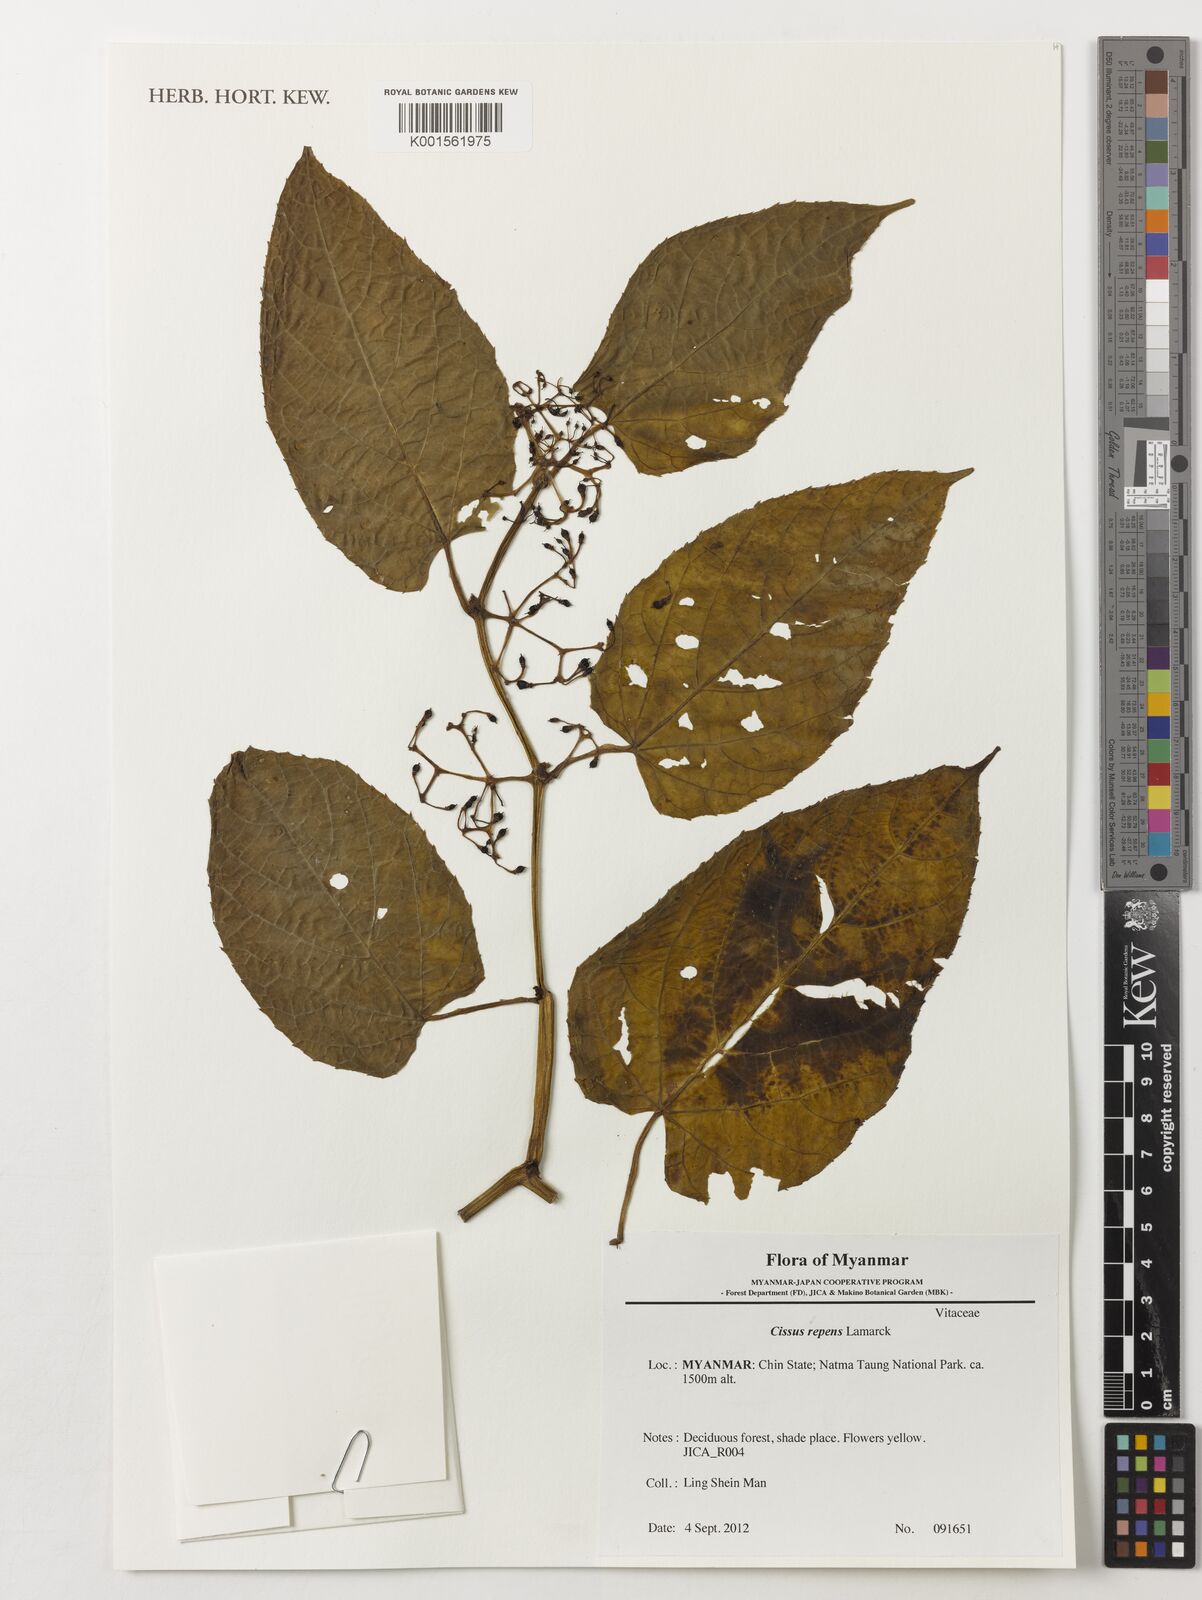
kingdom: Plantae
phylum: Tracheophyta
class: Magnoliopsida
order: Vitales
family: Vitaceae
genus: Cissus
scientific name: Cissus repens
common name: Cissus
